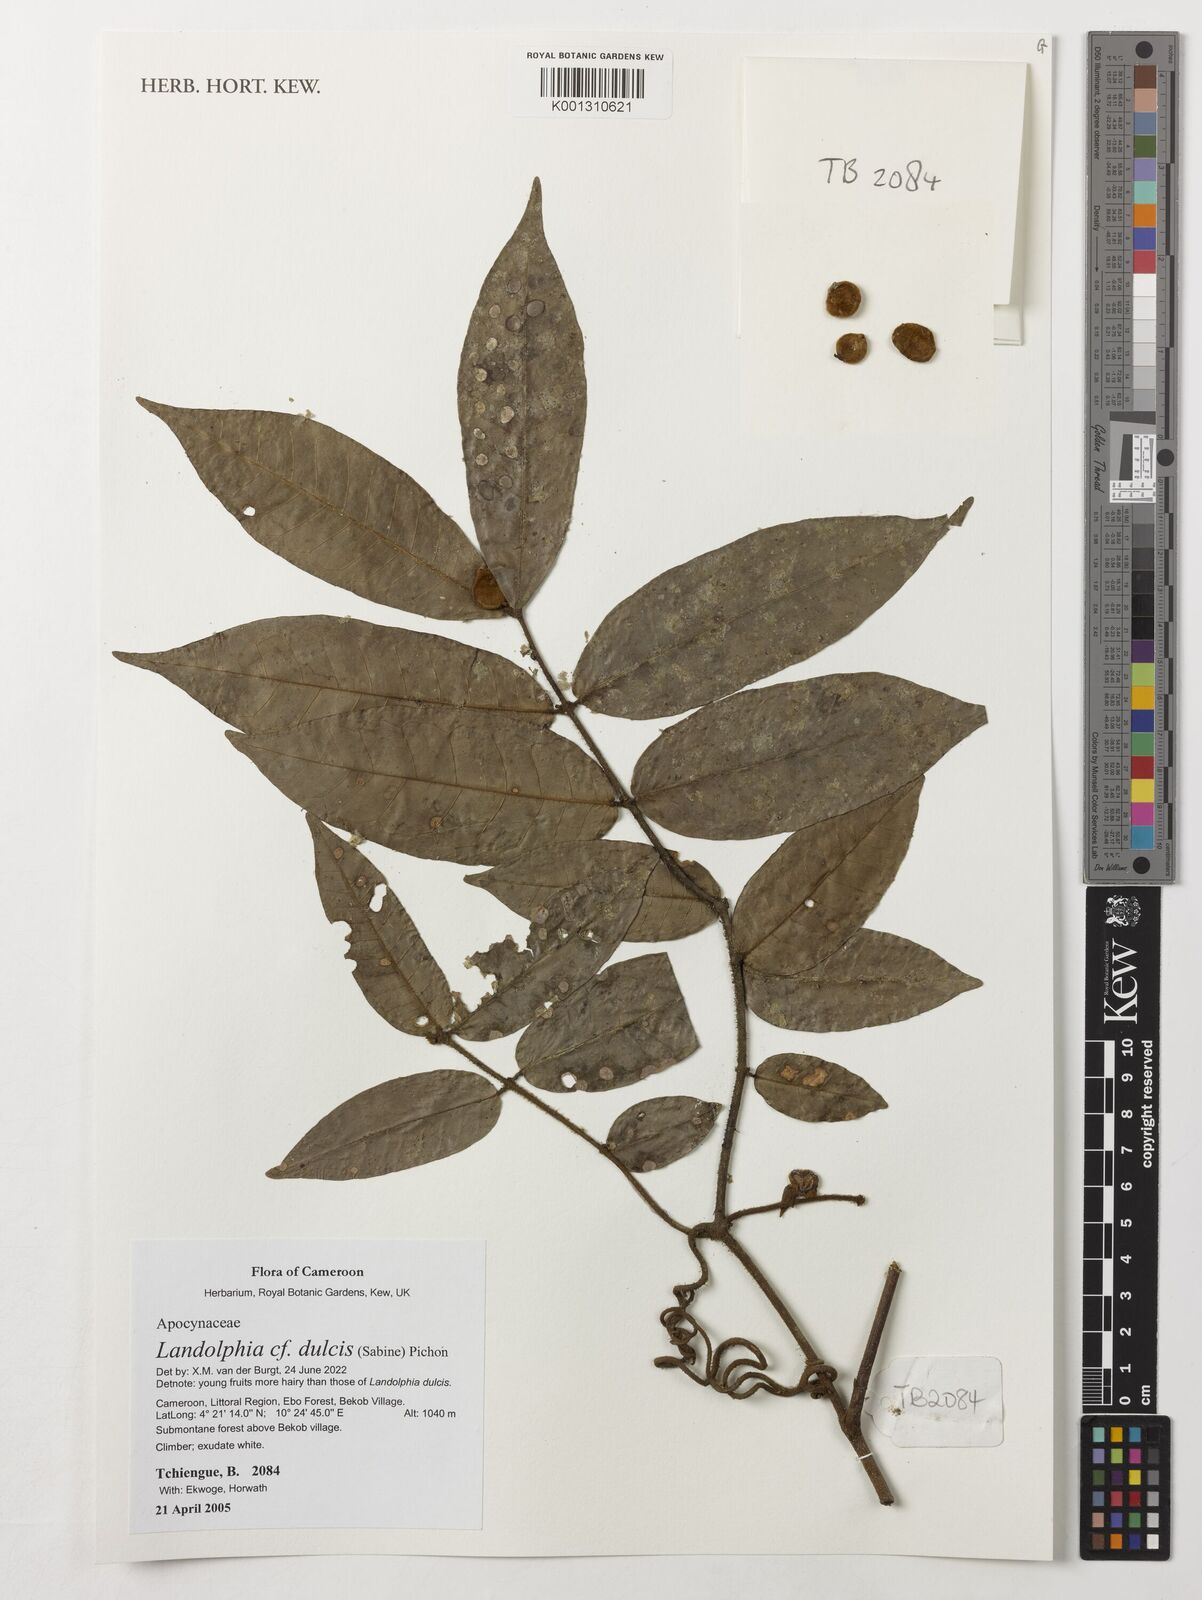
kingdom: Plantae
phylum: Tracheophyta
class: Magnoliopsida
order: Gentianales
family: Apocynaceae
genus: Landolphia
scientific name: Landolphia dulcis
